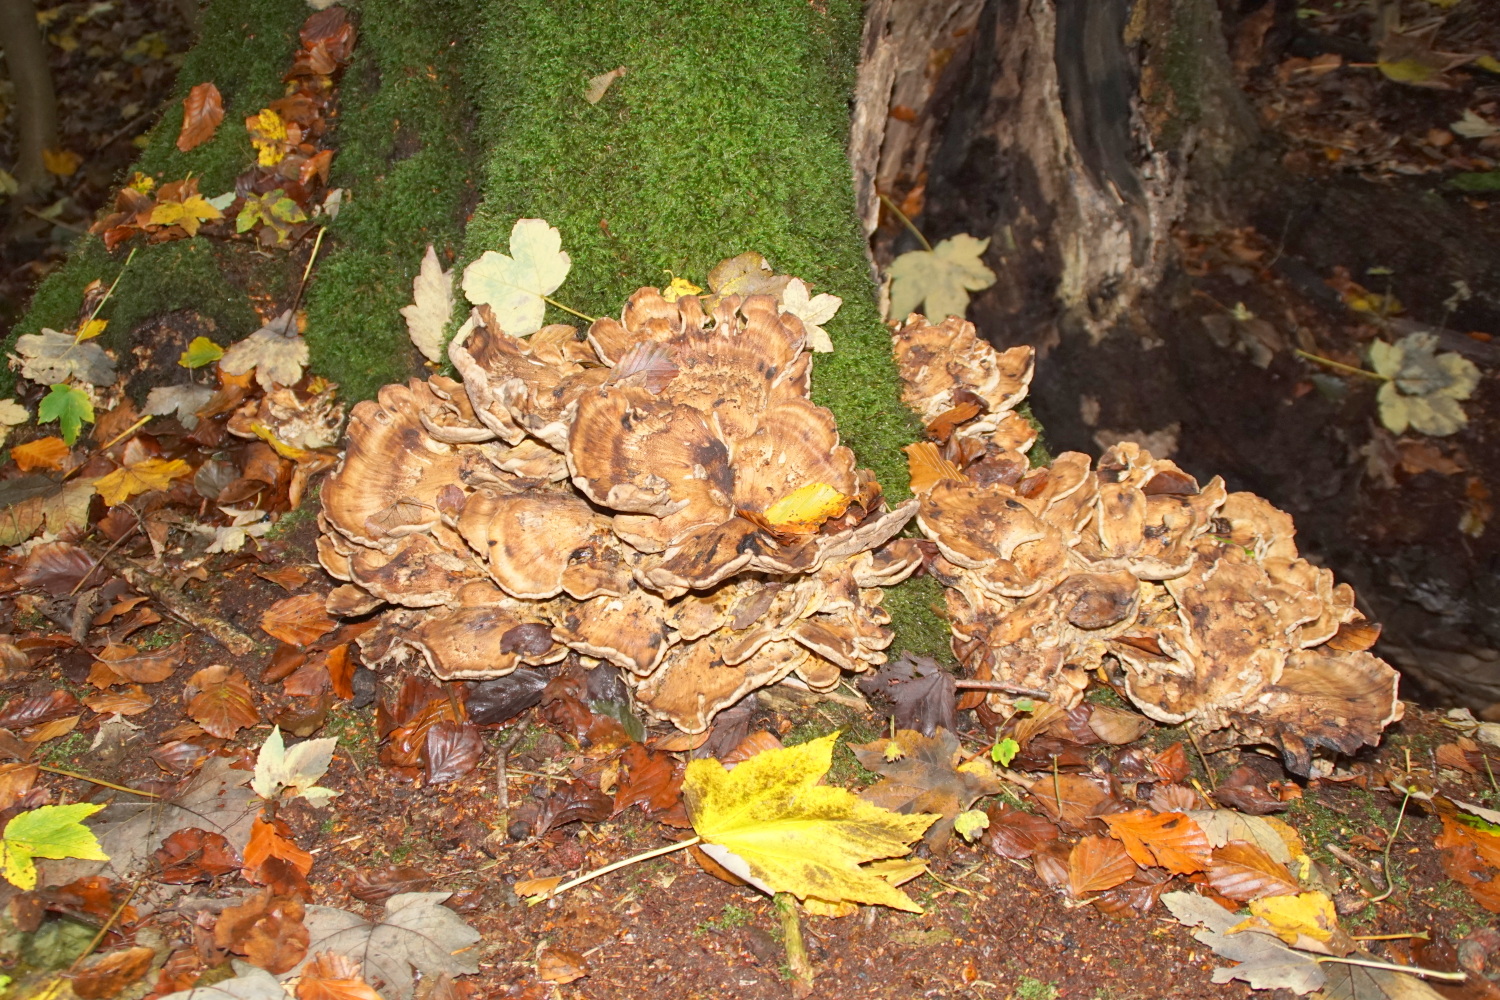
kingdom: Fungi
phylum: Basidiomycota
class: Agaricomycetes
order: Polyporales
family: Meripilaceae
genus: Meripilus
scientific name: Meripilus giganteus
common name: kæmpeporesvamp
